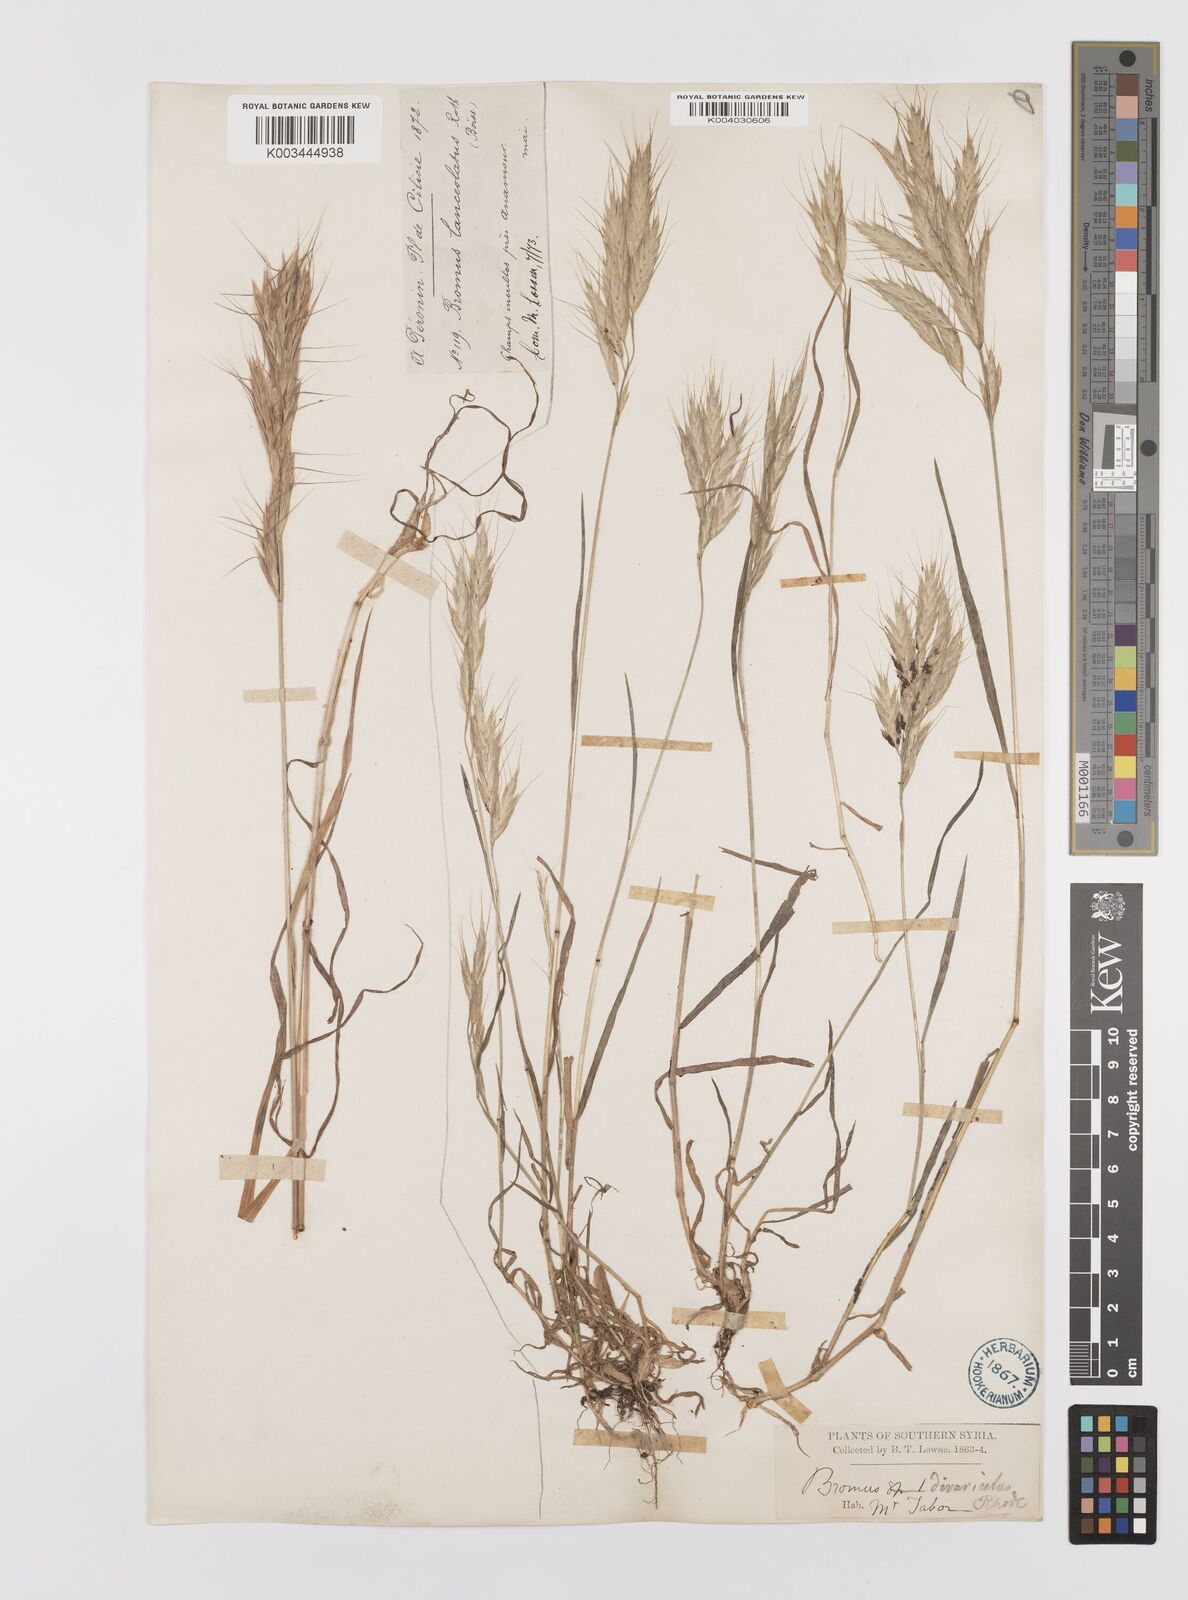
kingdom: Plantae
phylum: Tracheophyta
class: Liliopsida
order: Poales
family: Poaceae
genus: Bromus
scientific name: Bromus lanceolatus
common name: Mediterranean brome
